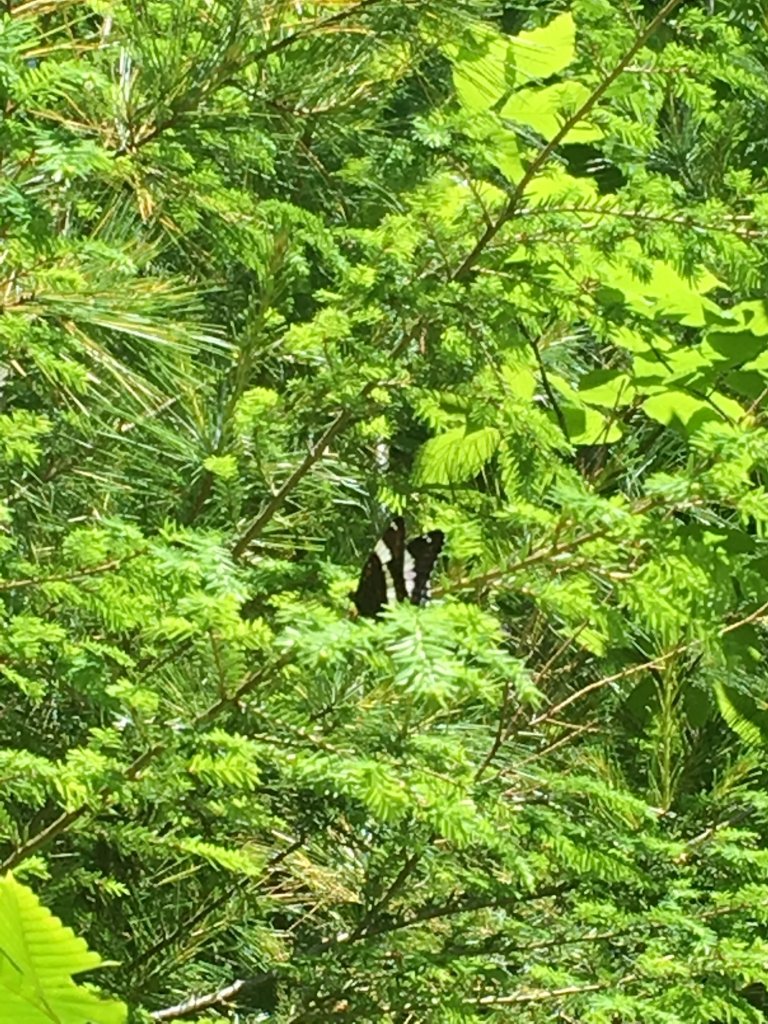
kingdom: Animalia
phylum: Arthropoda
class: Insecta
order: Lepidoptera
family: Nymphalidae
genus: Limenitis
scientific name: Limenitis arthemis
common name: Red-spotted Admiral
